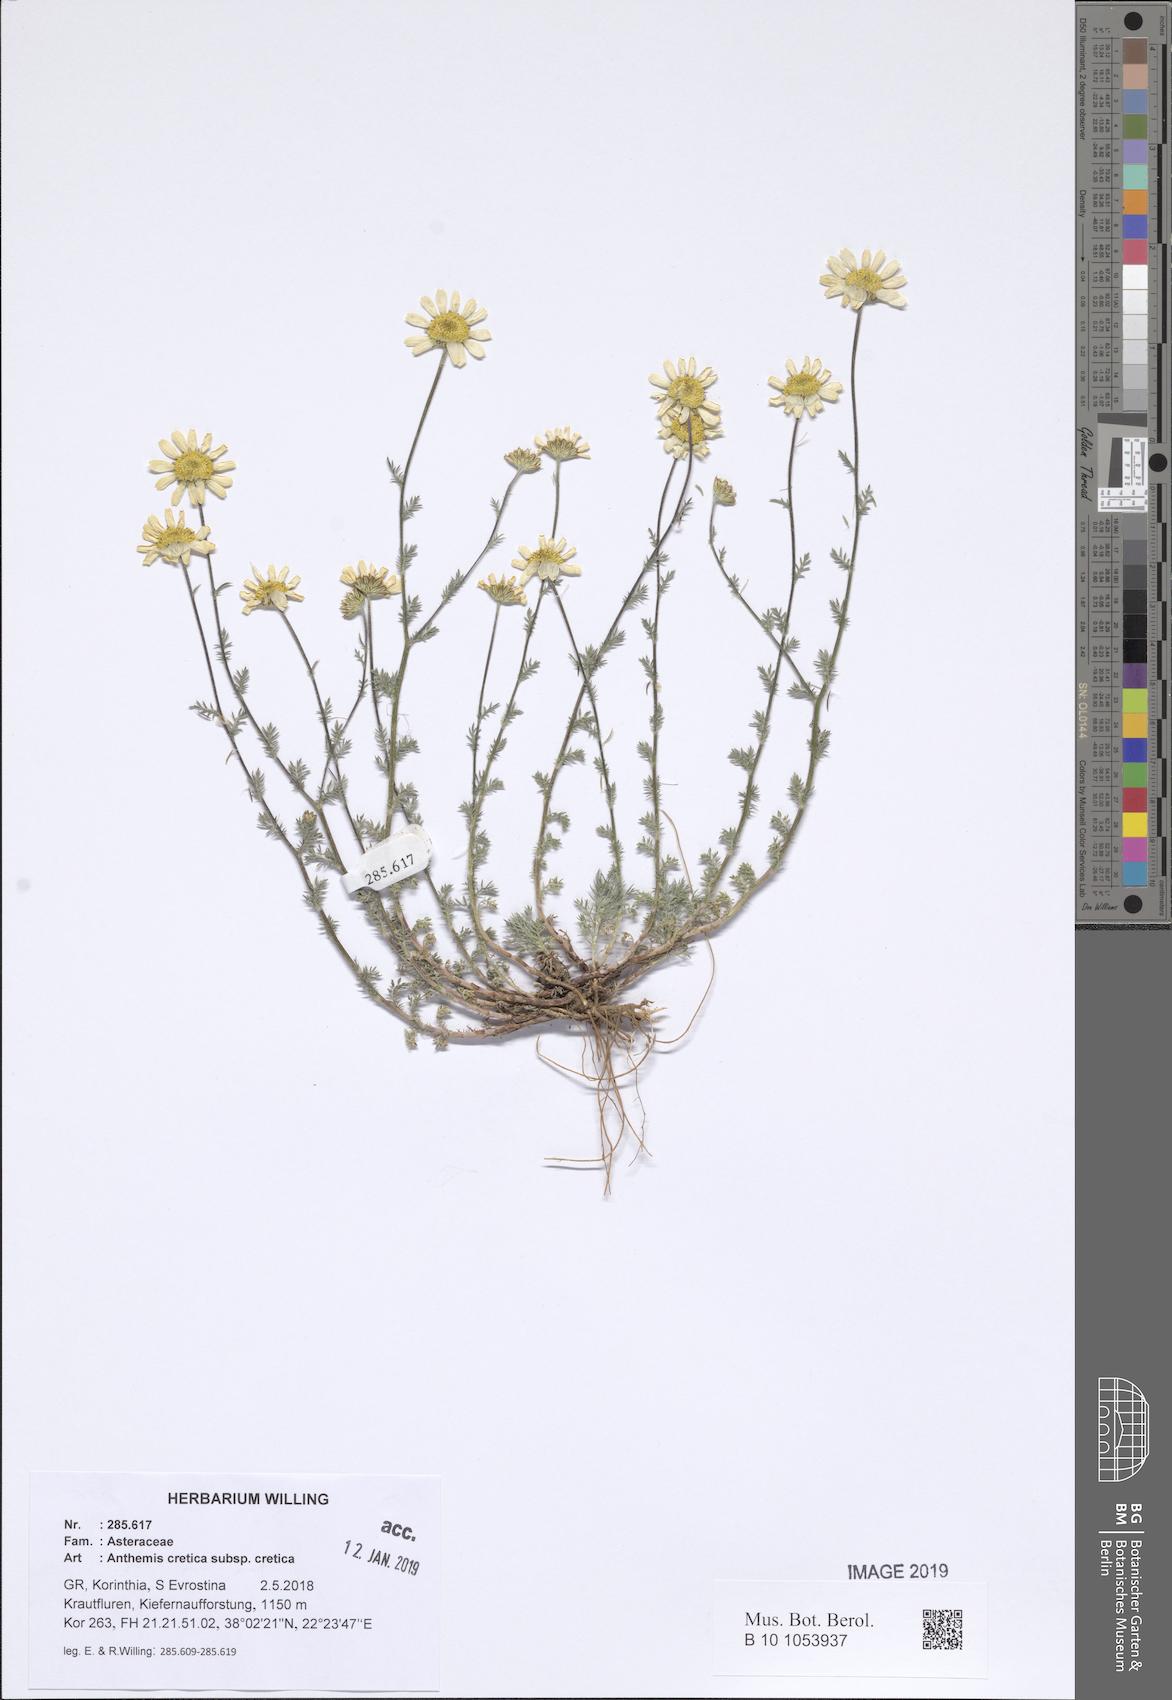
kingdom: Plantae
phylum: Tracheophyta
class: Magnoliopsida
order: Asterales
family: Asteraceae
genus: Anthemis
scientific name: Anthemis cretica
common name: Mountain dog-daisy
